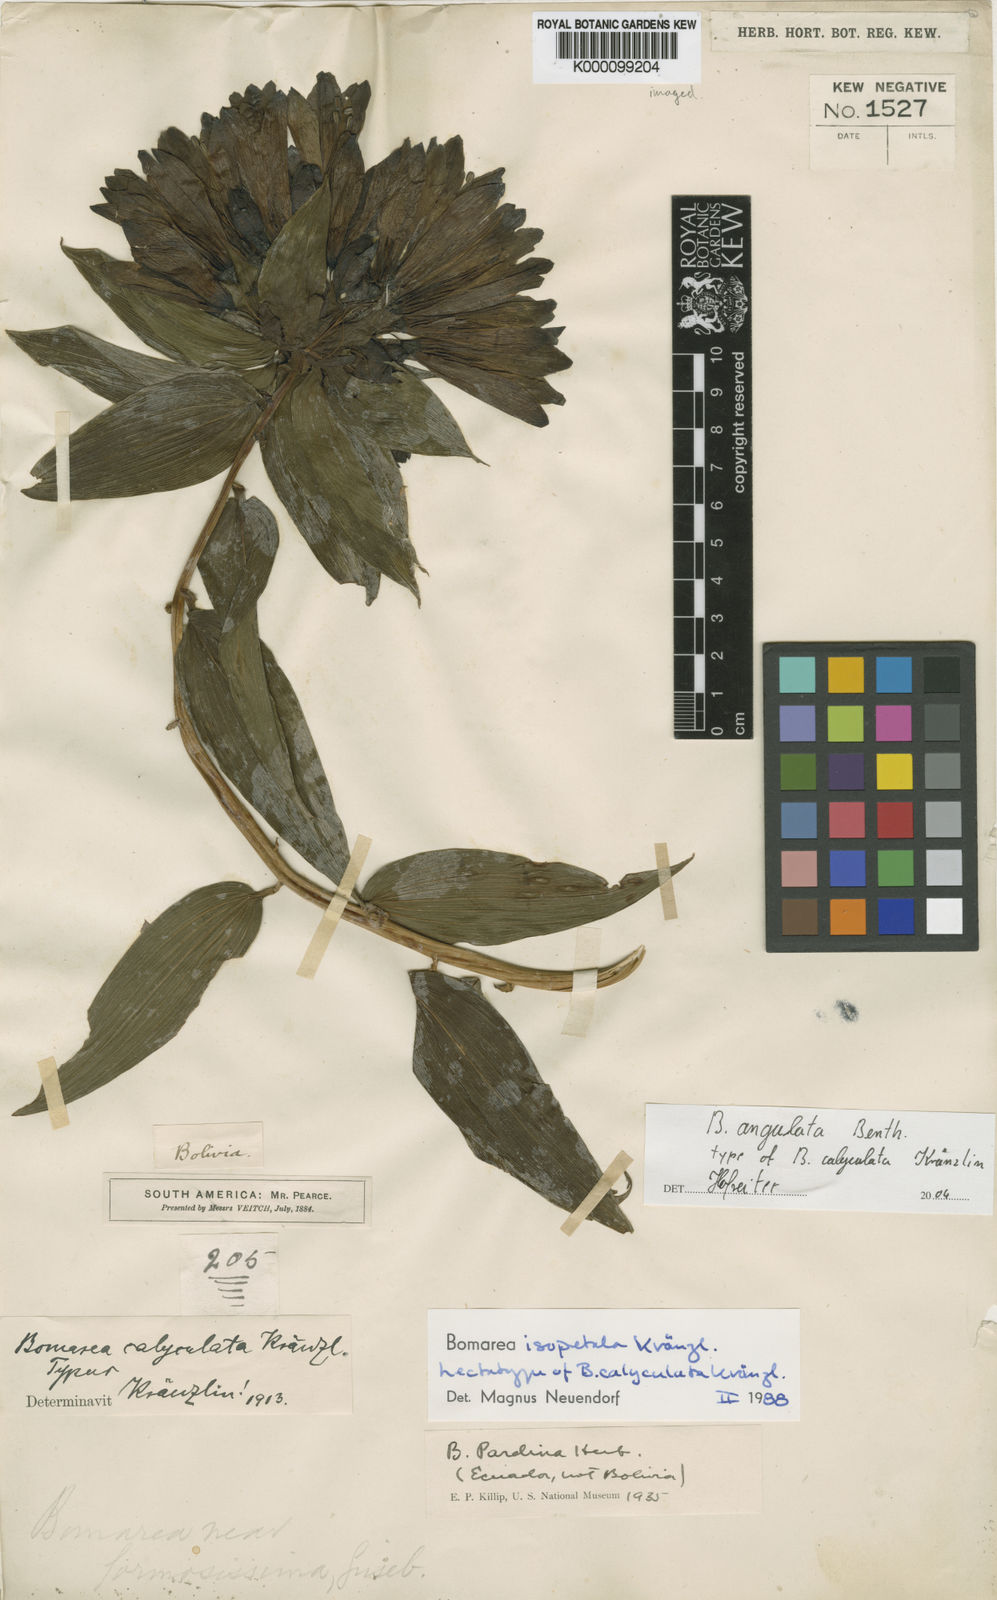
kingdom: Plantae
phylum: Tracheophyta
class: Liliopsida
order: Liliales
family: Alstroemeriaceae
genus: Bomarea
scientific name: Bomarea angulata
